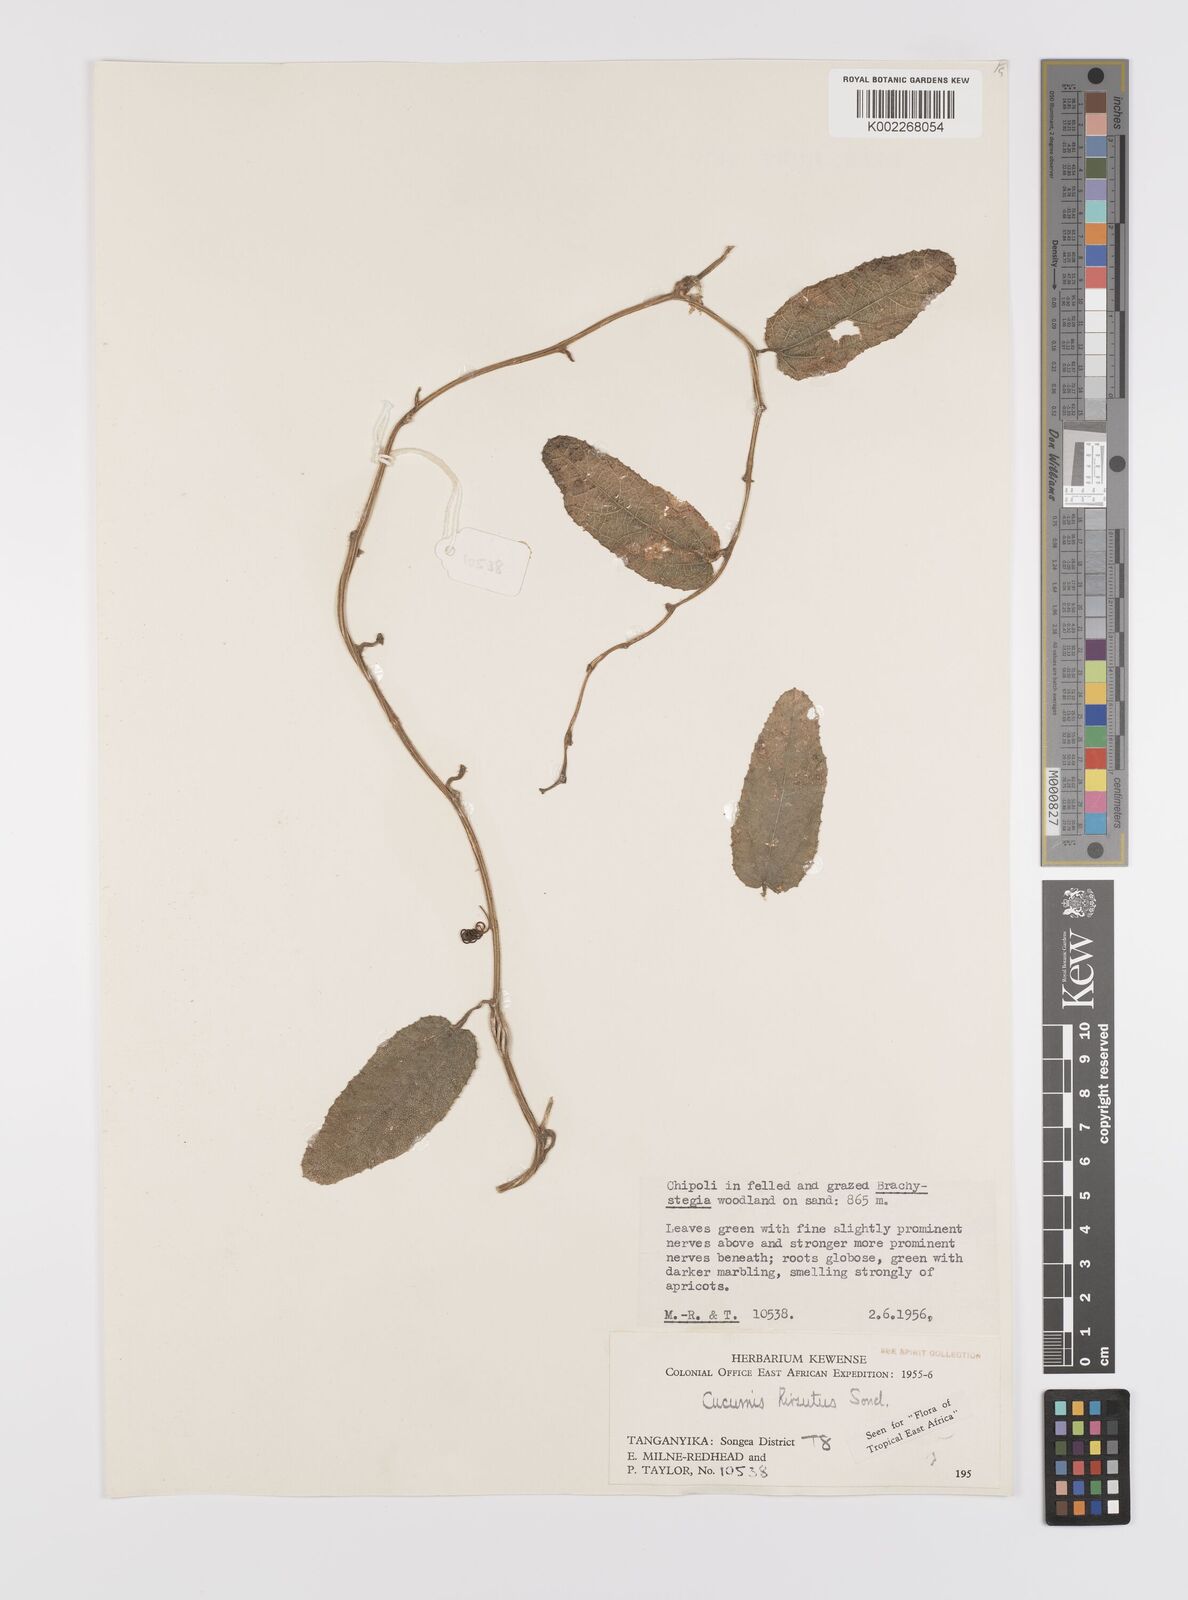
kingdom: Plantae
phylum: Tracheophyta
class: Magnoliopsida
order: Cucurbitales
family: Cucurbitaceae
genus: Cucumis
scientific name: Cucumis hirsutus
